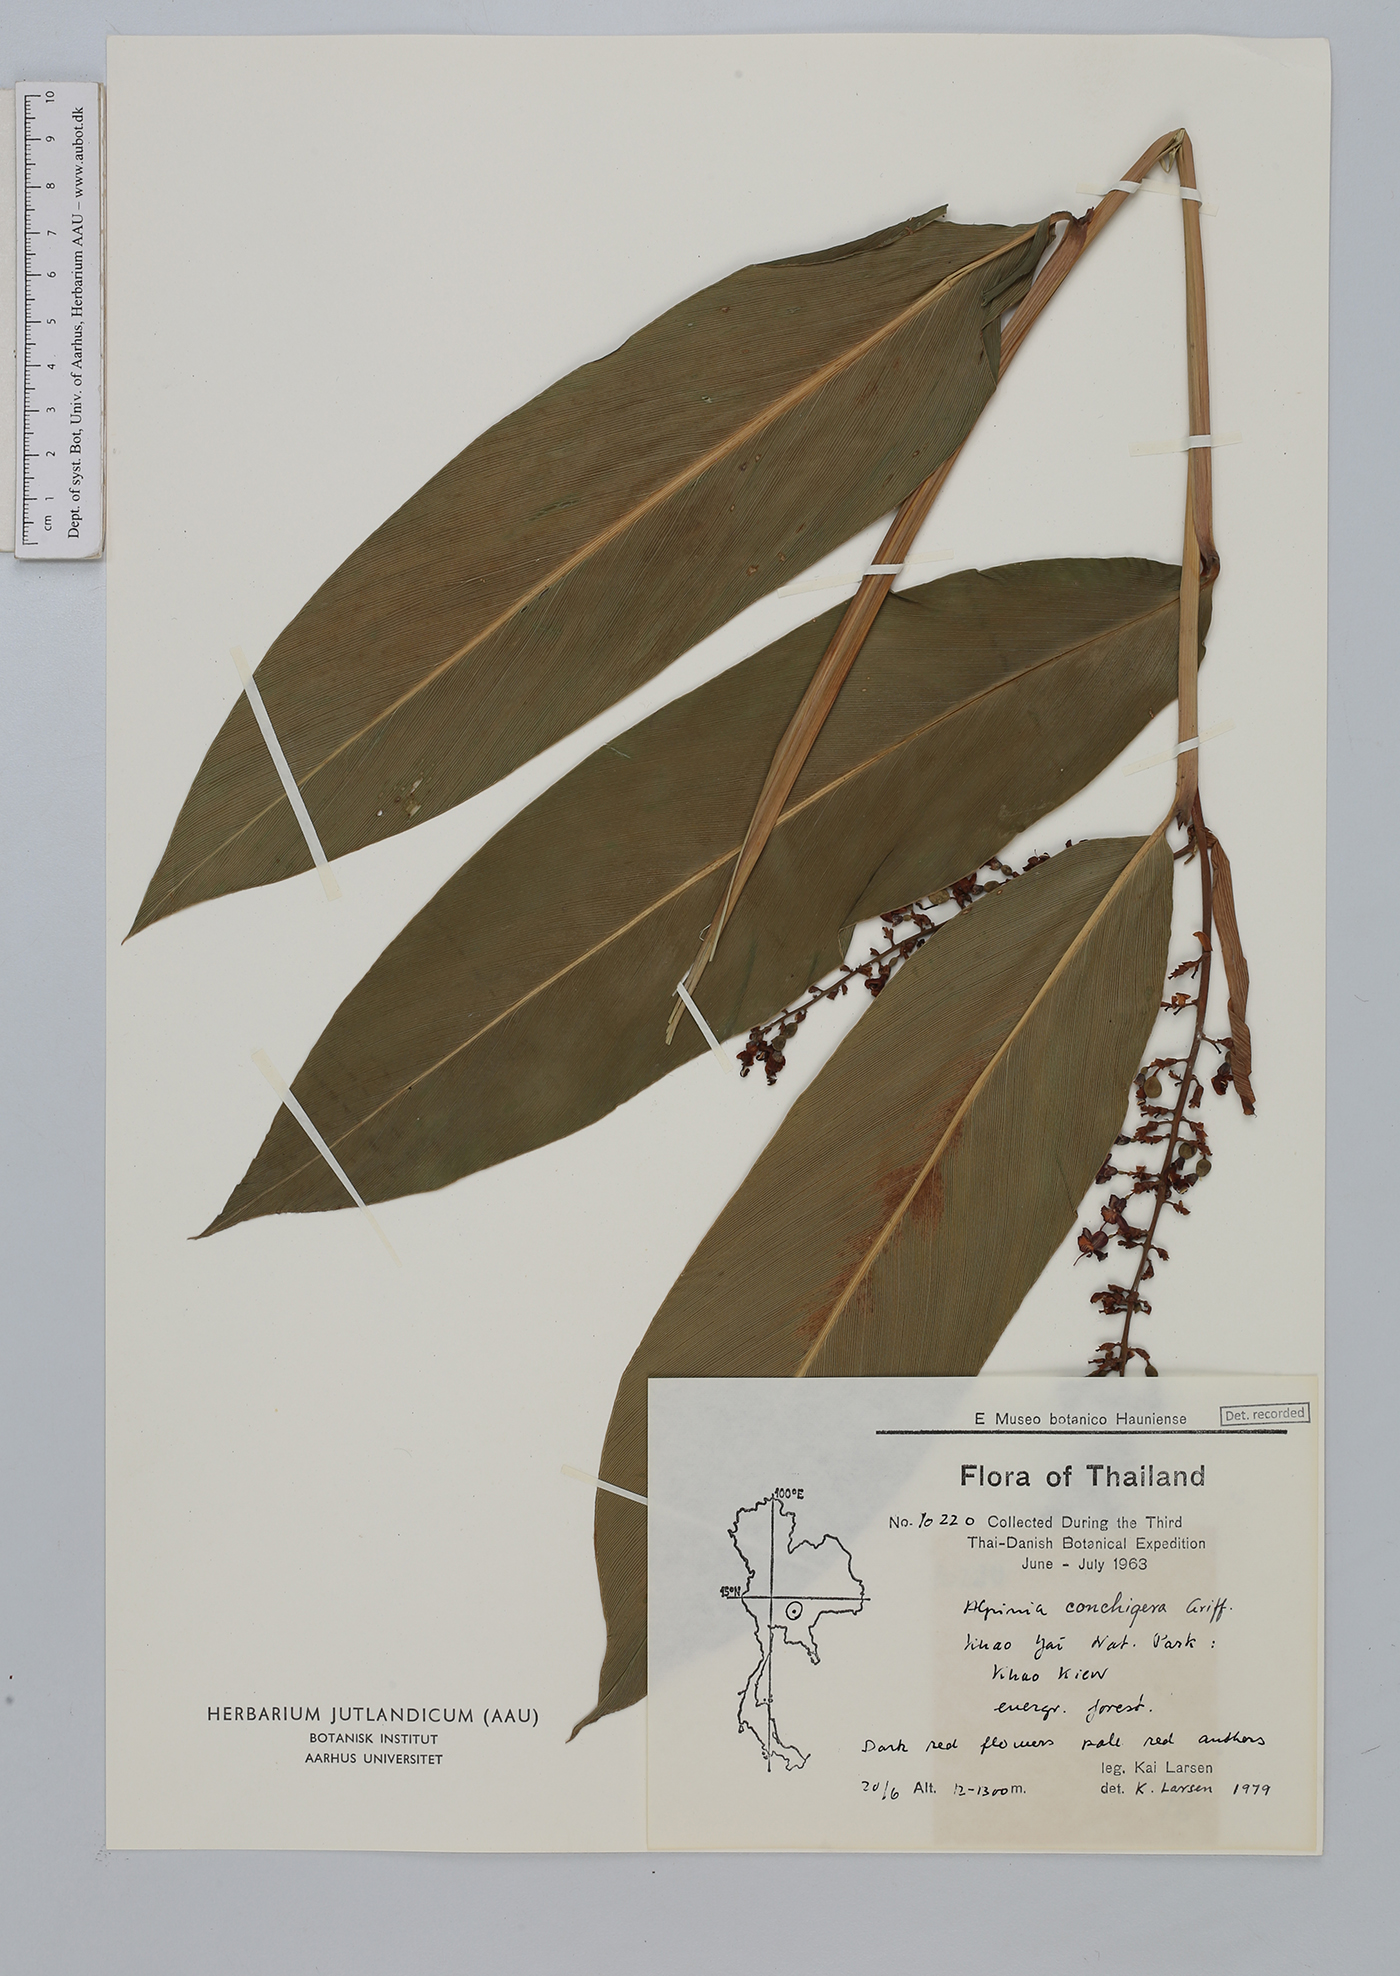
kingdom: Plantae
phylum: Tracheophyta
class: Liliopsida
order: Zingiberales
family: Zingiberaceae
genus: Alpinia
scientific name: Alpinia conchigera
